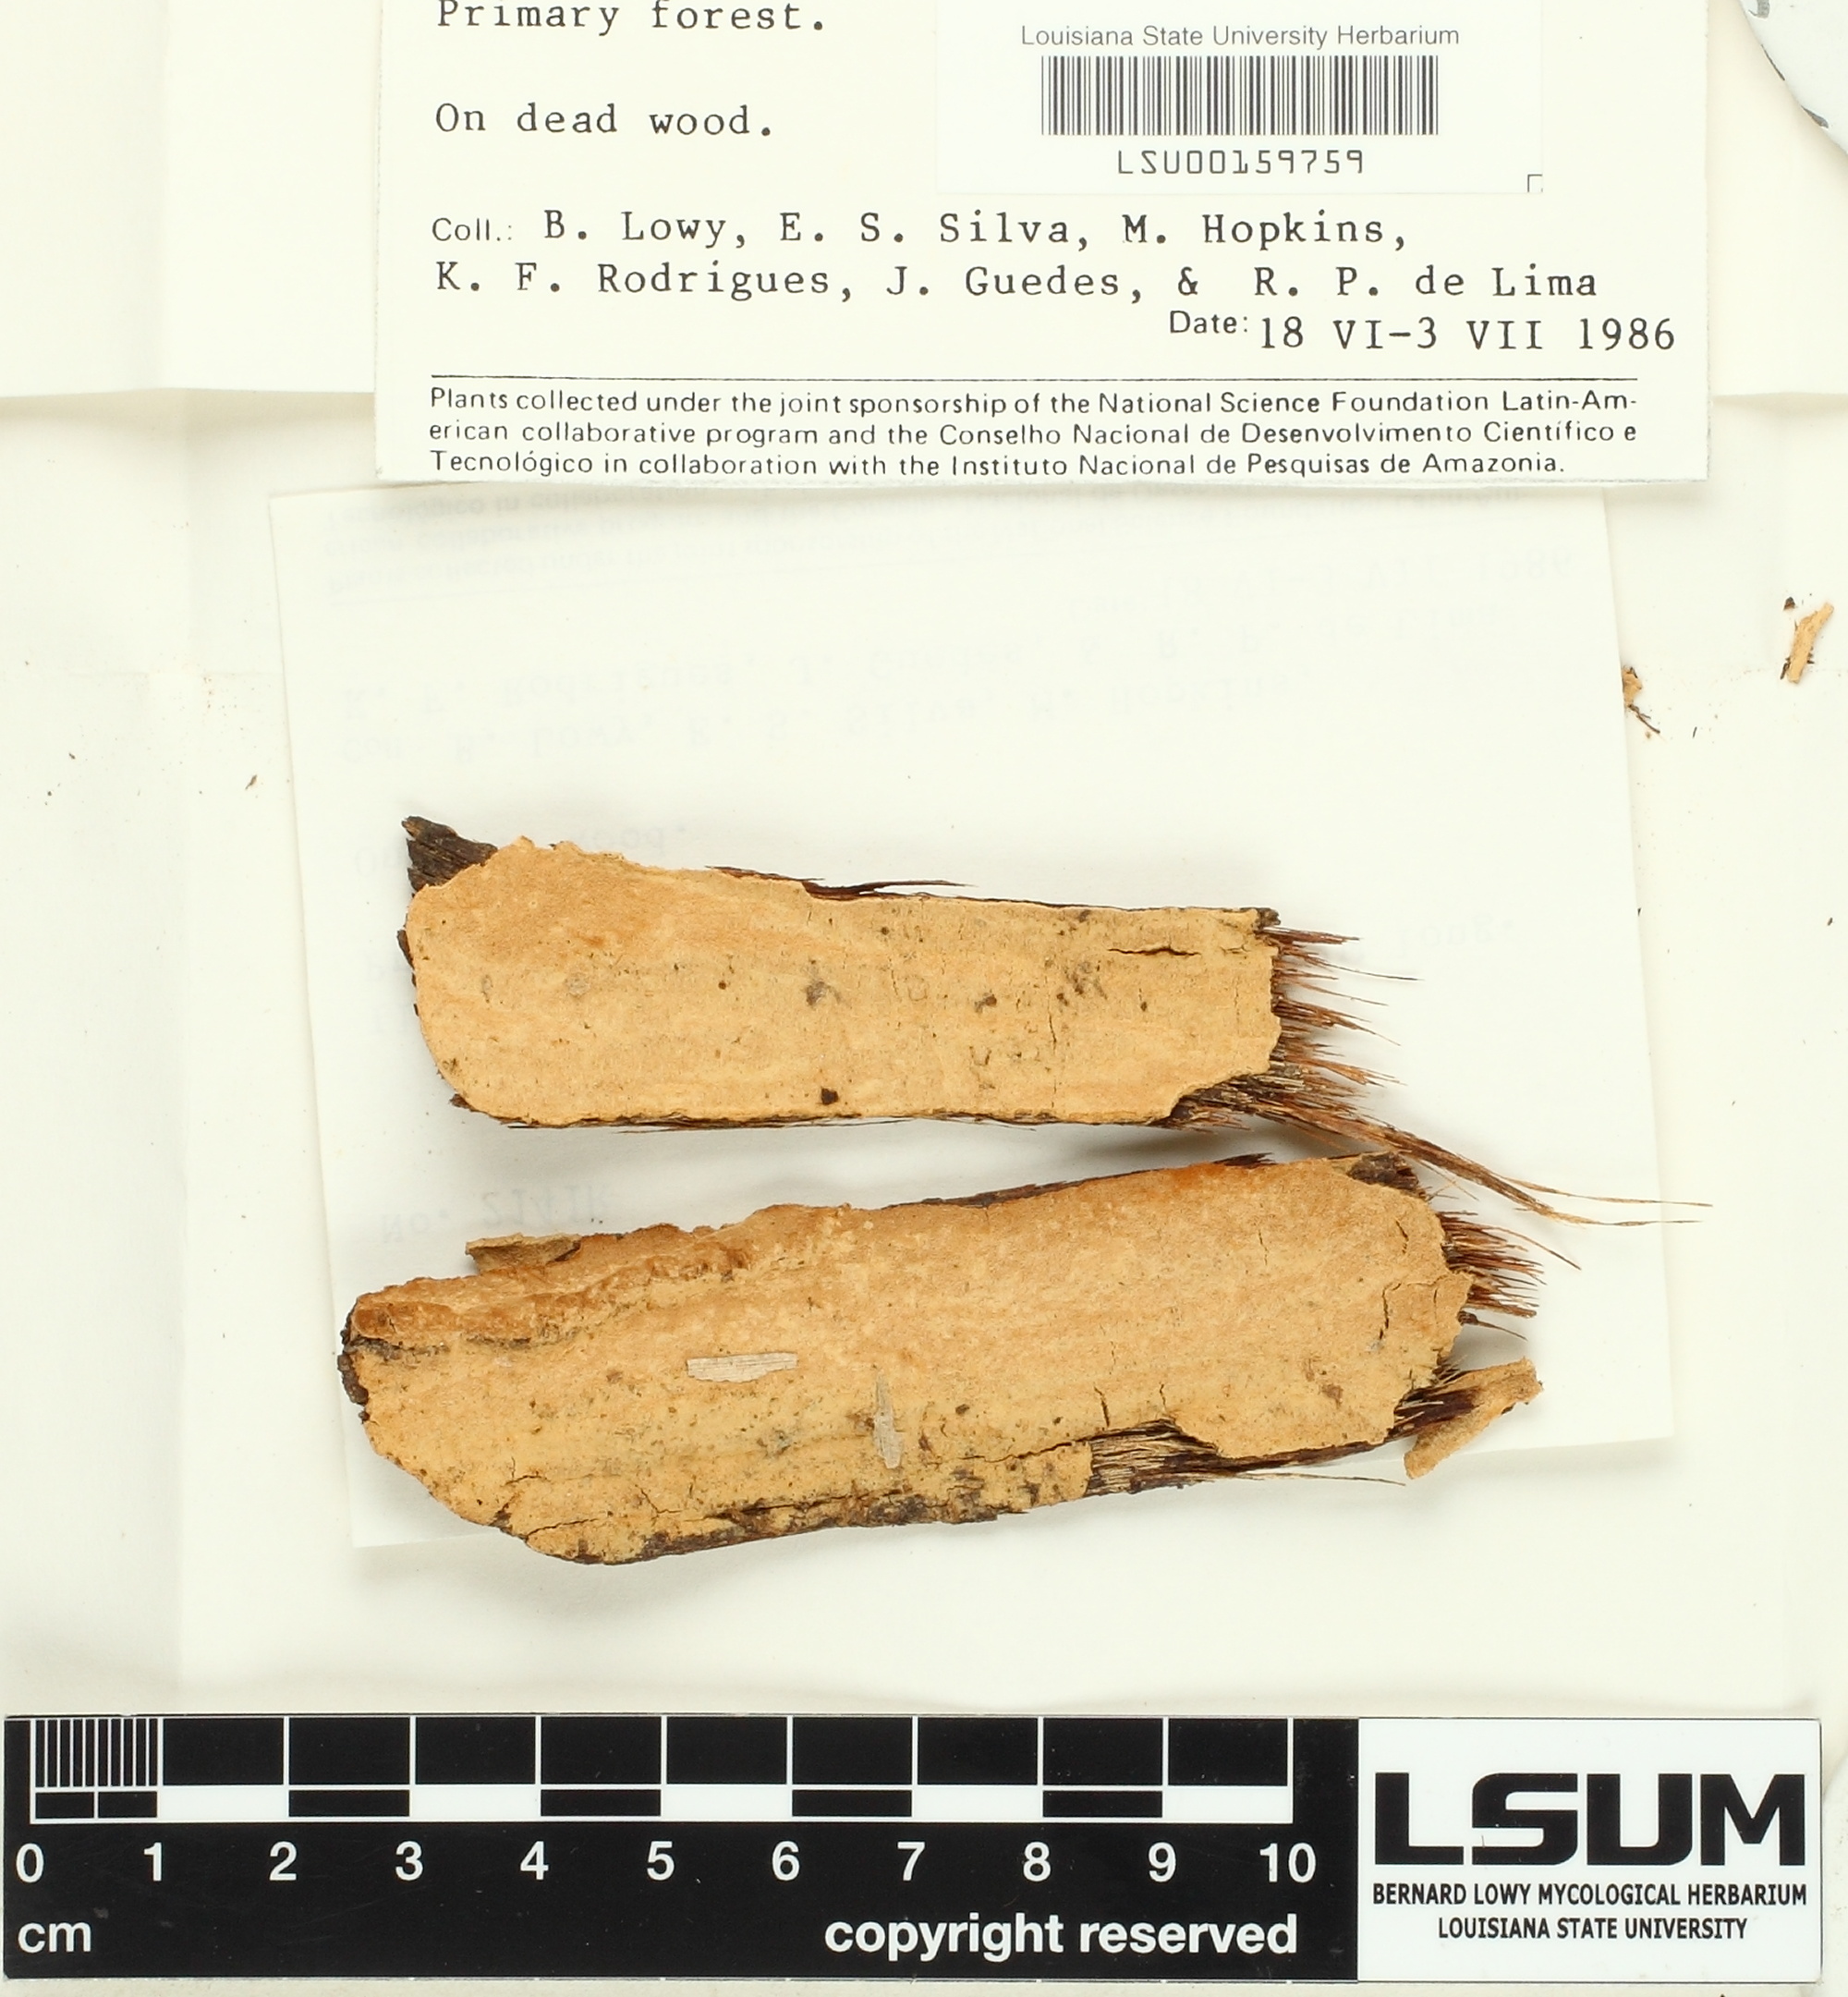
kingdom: Fungi
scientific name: Fungi
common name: Fungi
